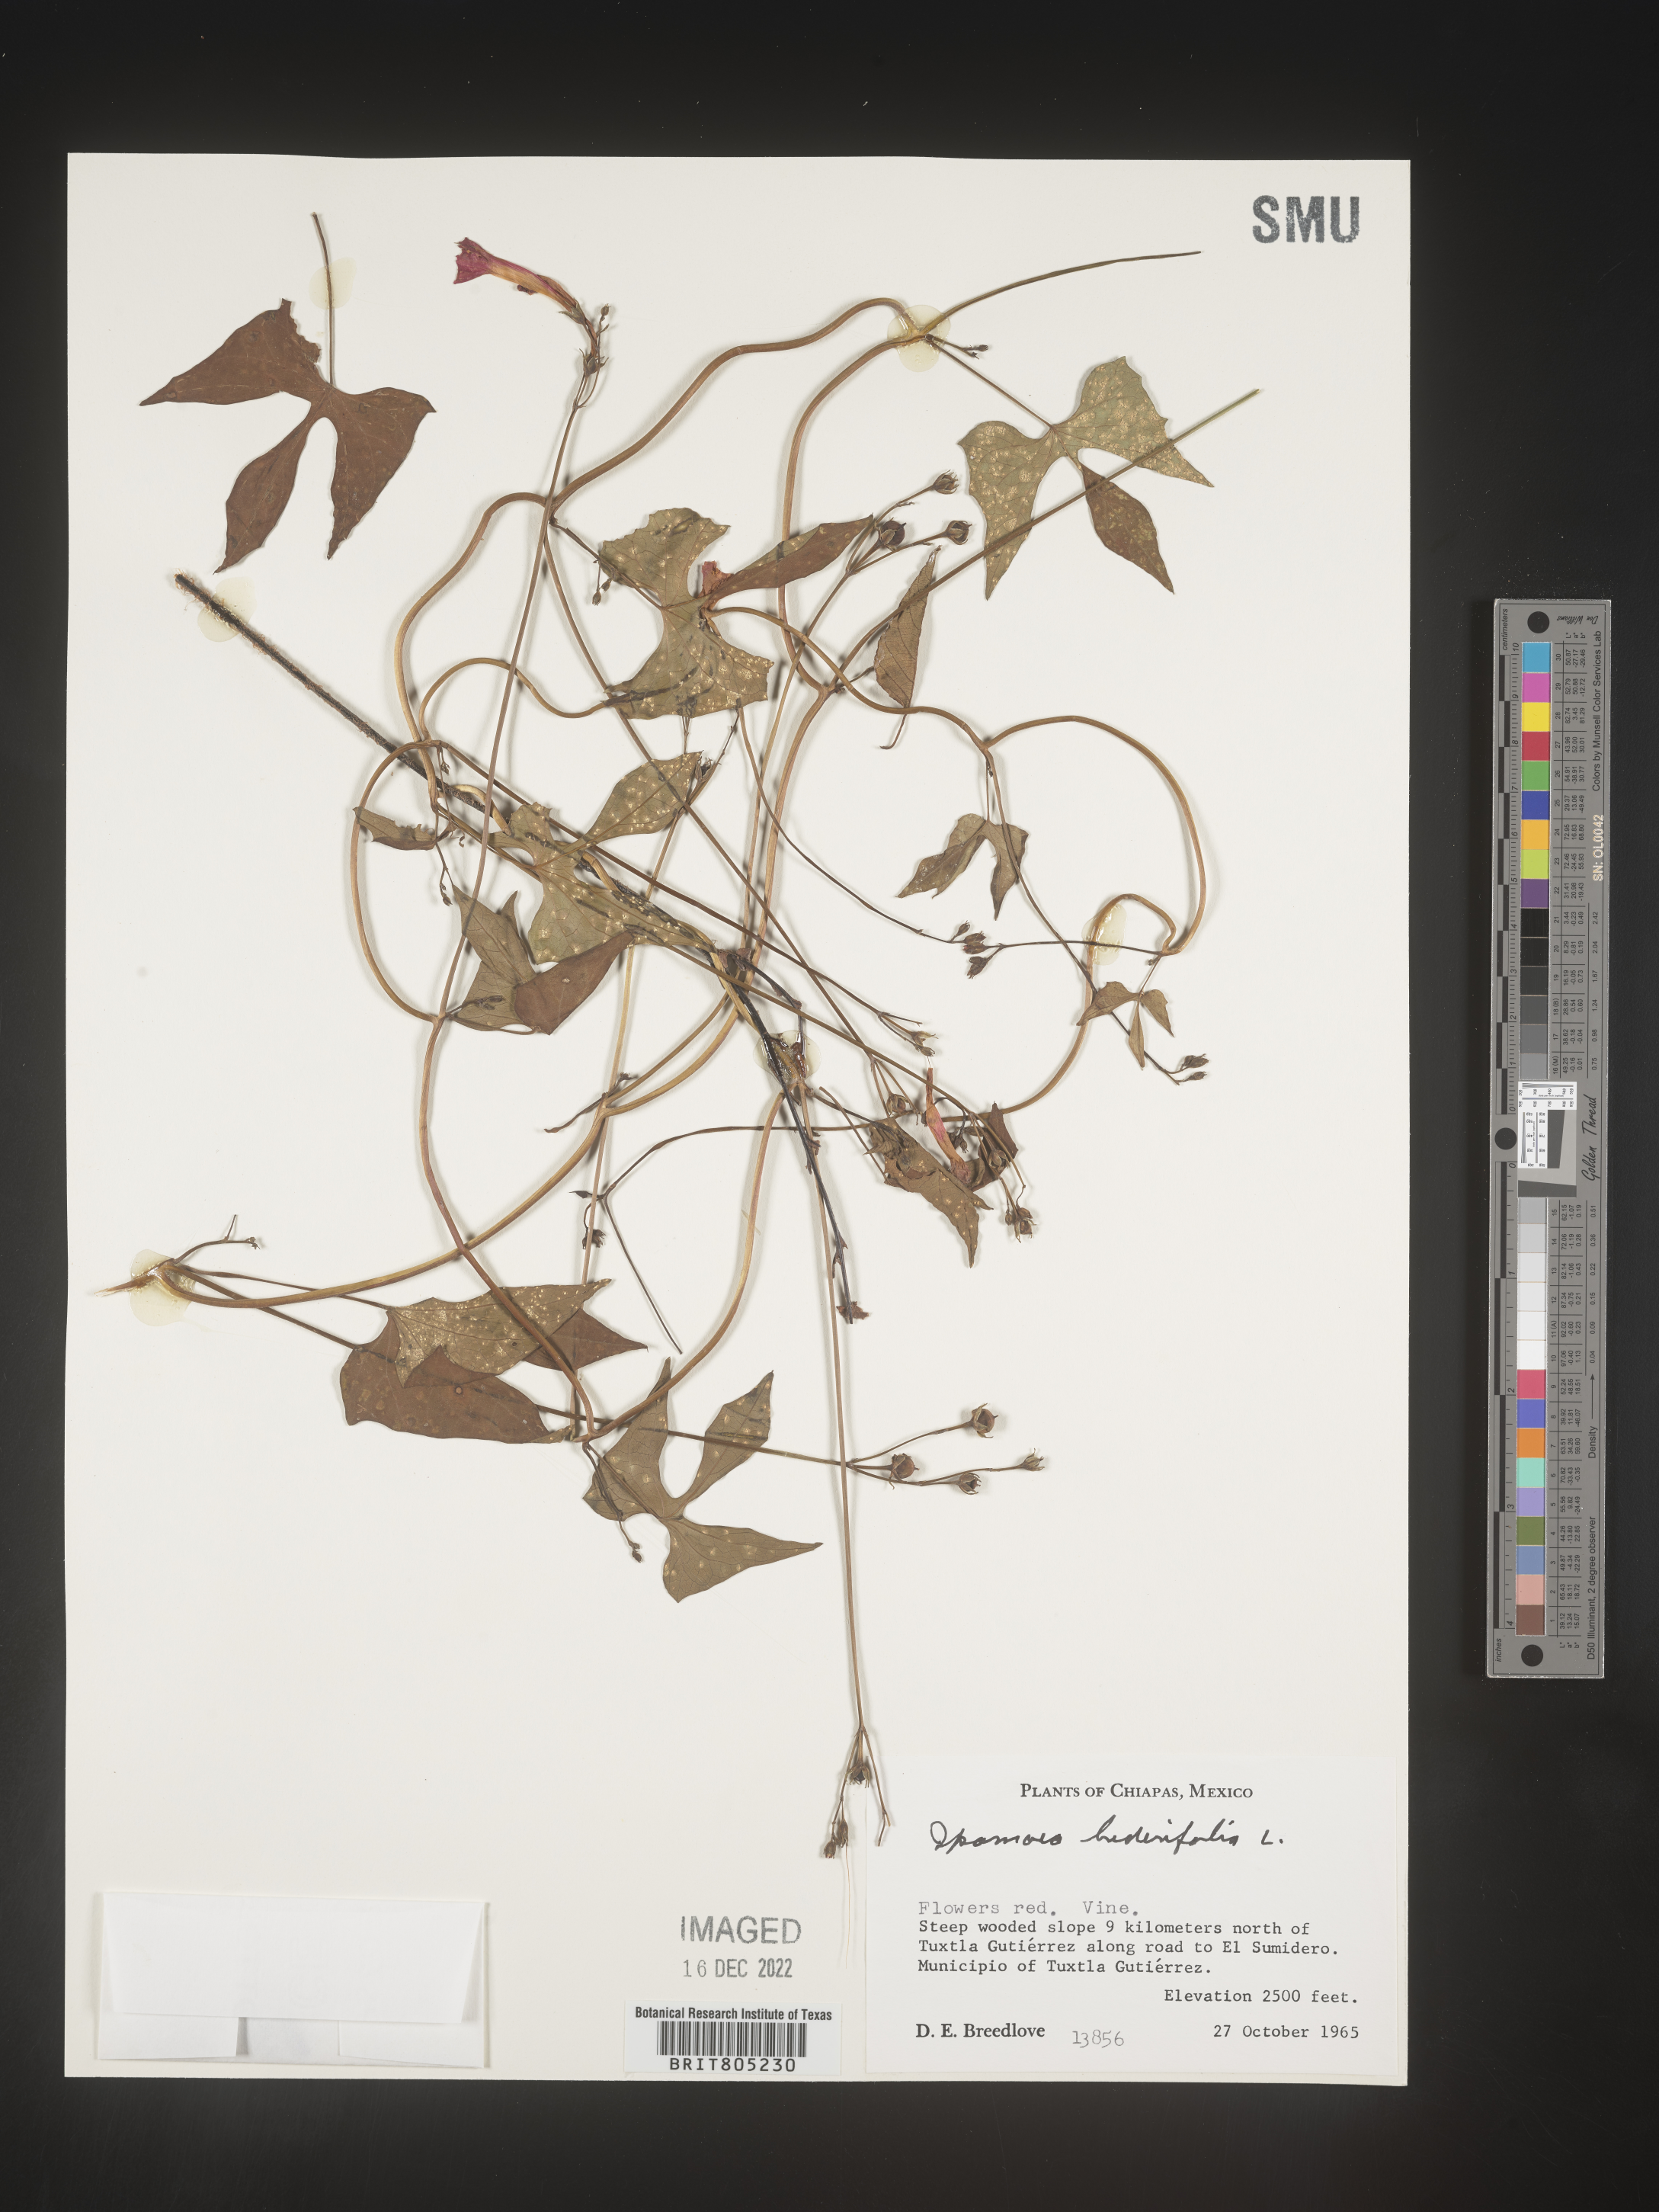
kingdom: Plantae
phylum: Tracheophyta
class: Magnoliopsida
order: Solanales
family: Convolvulaceae
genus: Ipomoea
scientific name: Ipomoea
